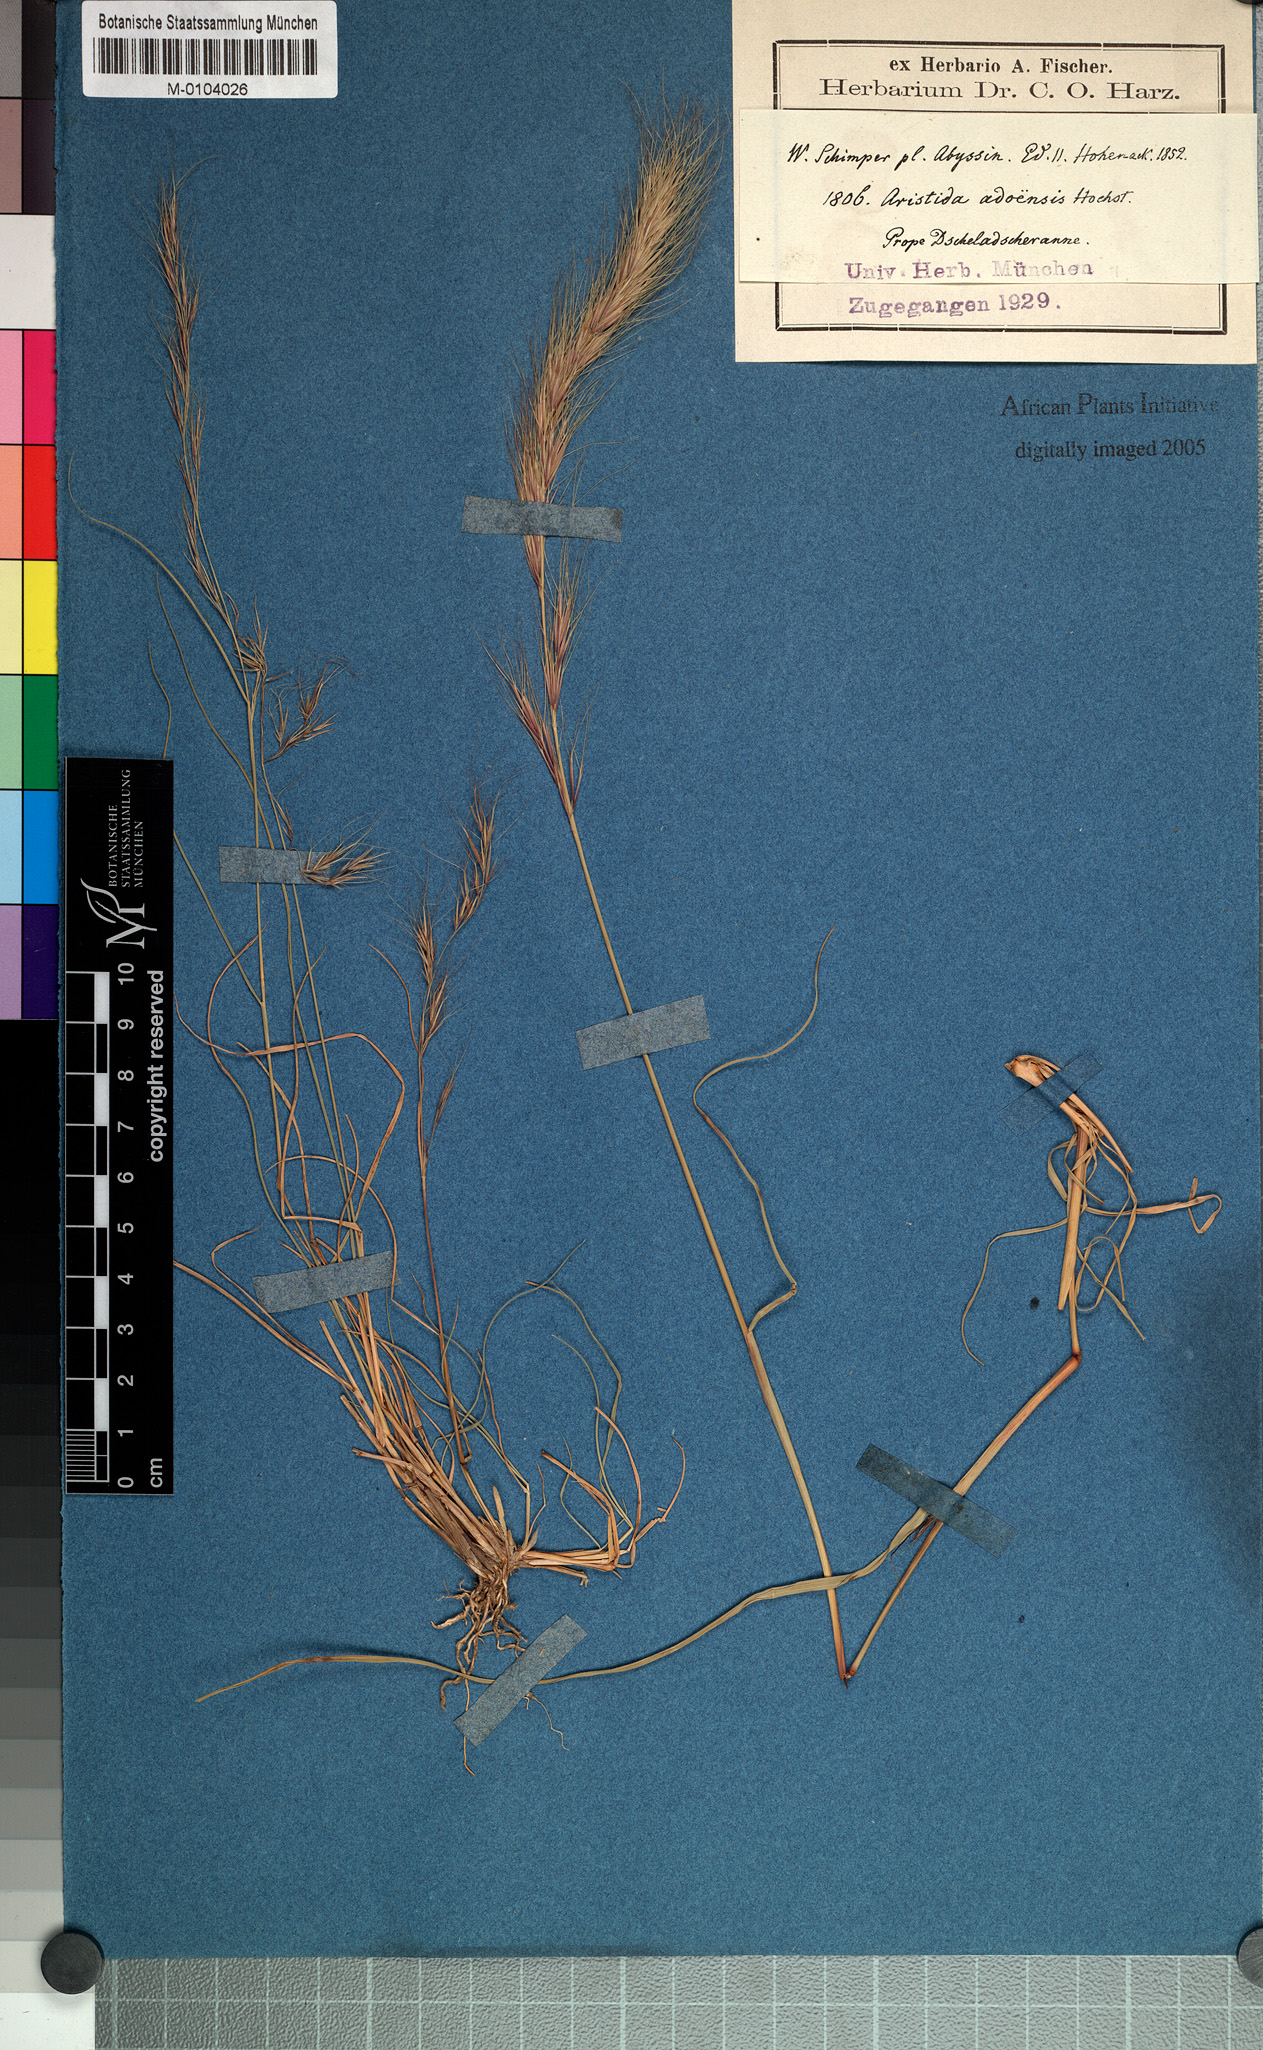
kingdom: Plantae
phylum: Tracheophyta
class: Liliopsida
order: Poales
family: Poaceae
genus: Aristida
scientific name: Aristida adoensis
